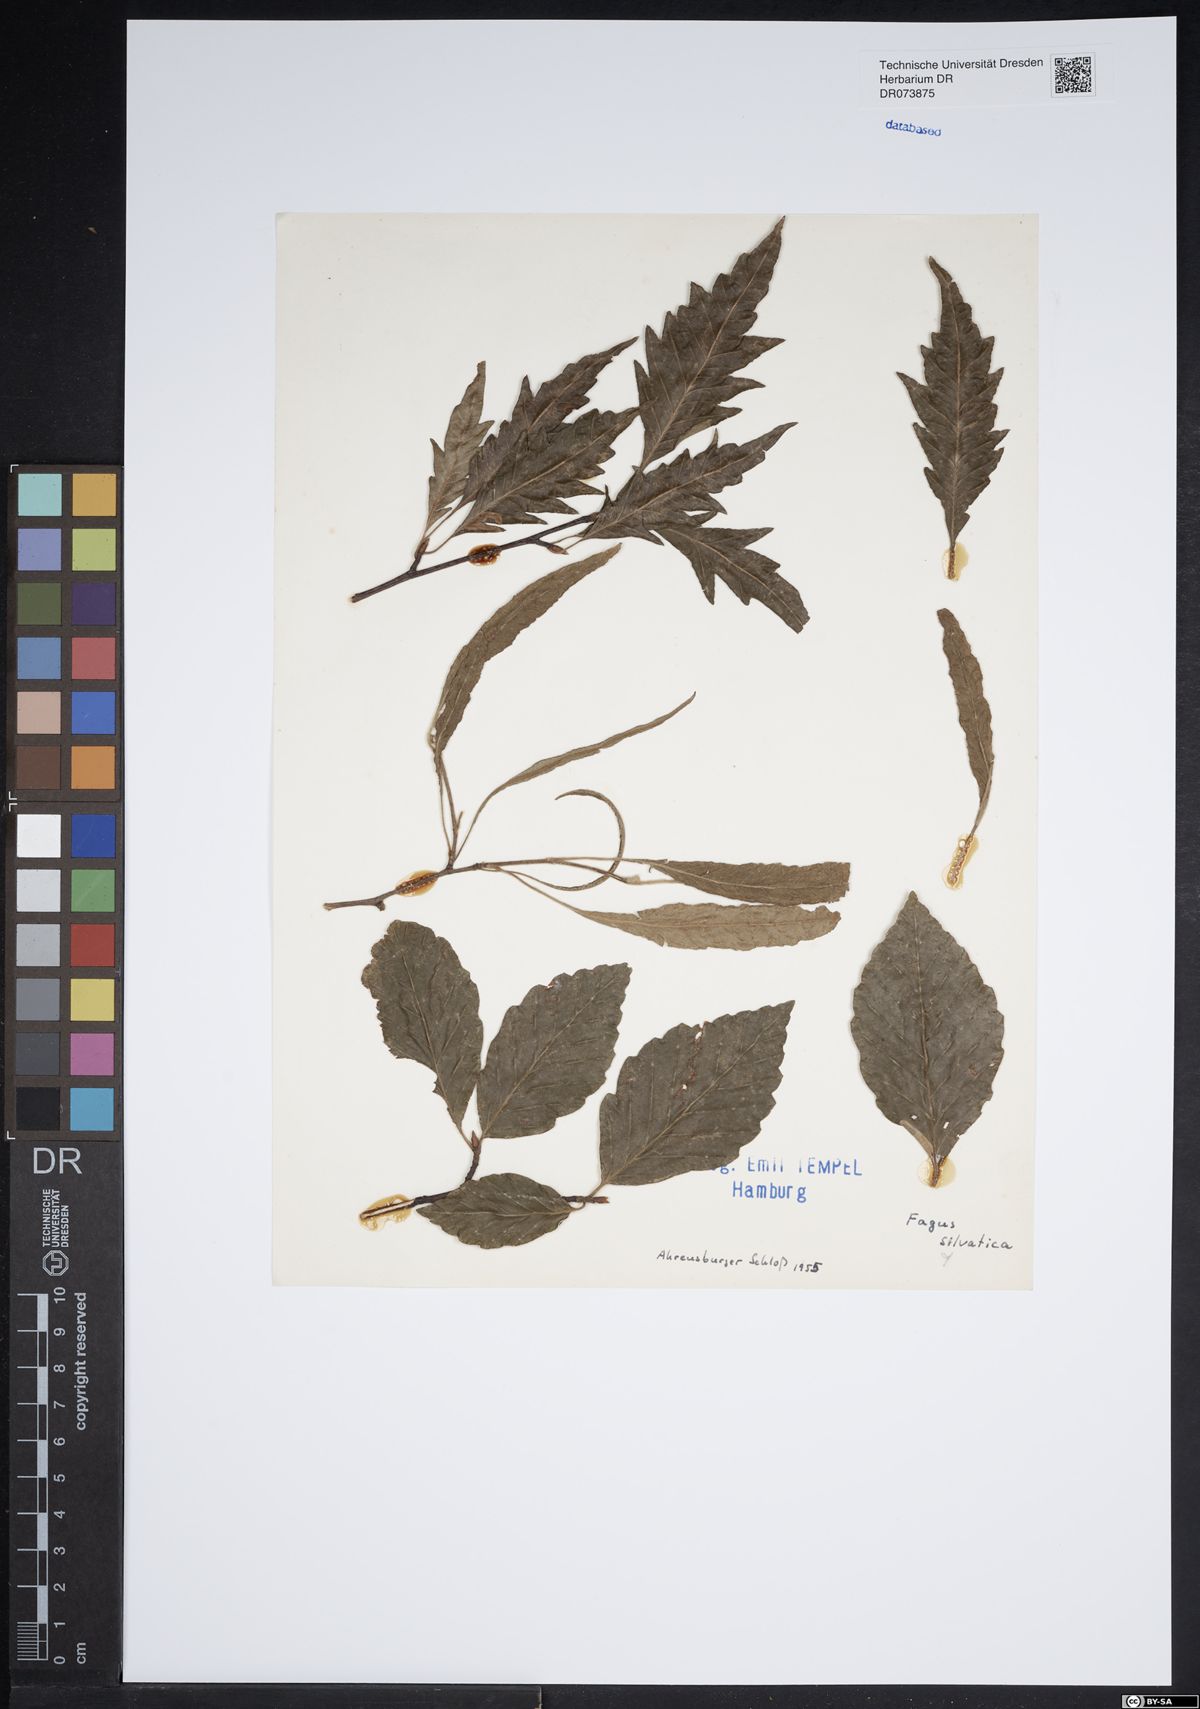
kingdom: Plantae
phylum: Tracheophyta
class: Magnoliopsida
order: Fagales
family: Fagaceae
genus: Fagus
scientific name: Fagus sylvatica
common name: Beech
